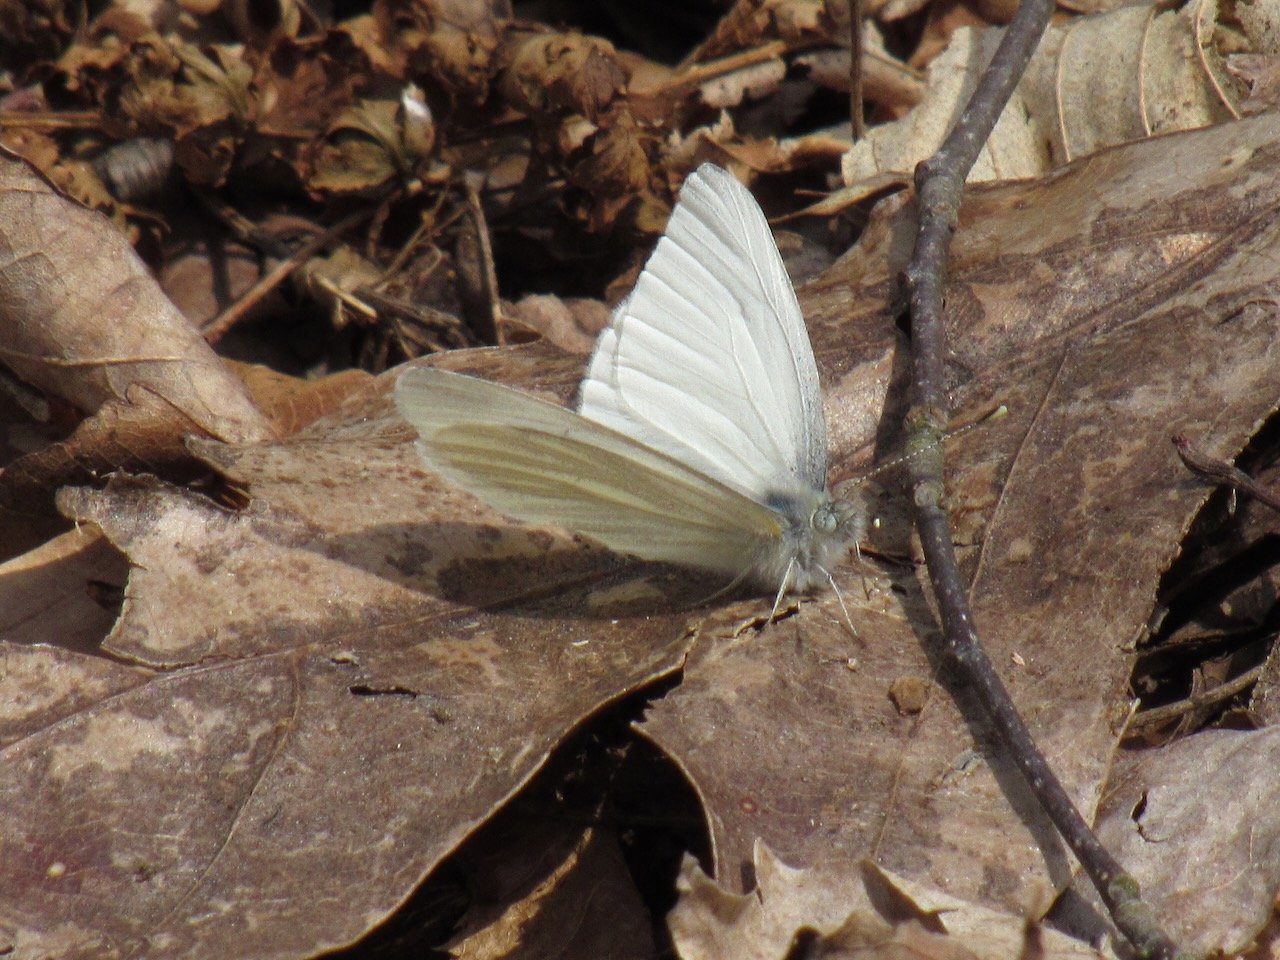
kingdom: Animalia
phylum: Arthropoda
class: Insecta
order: Lepidoptera
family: Pieridae
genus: Pieris
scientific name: Pieris virginiensis
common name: West Virginia White
